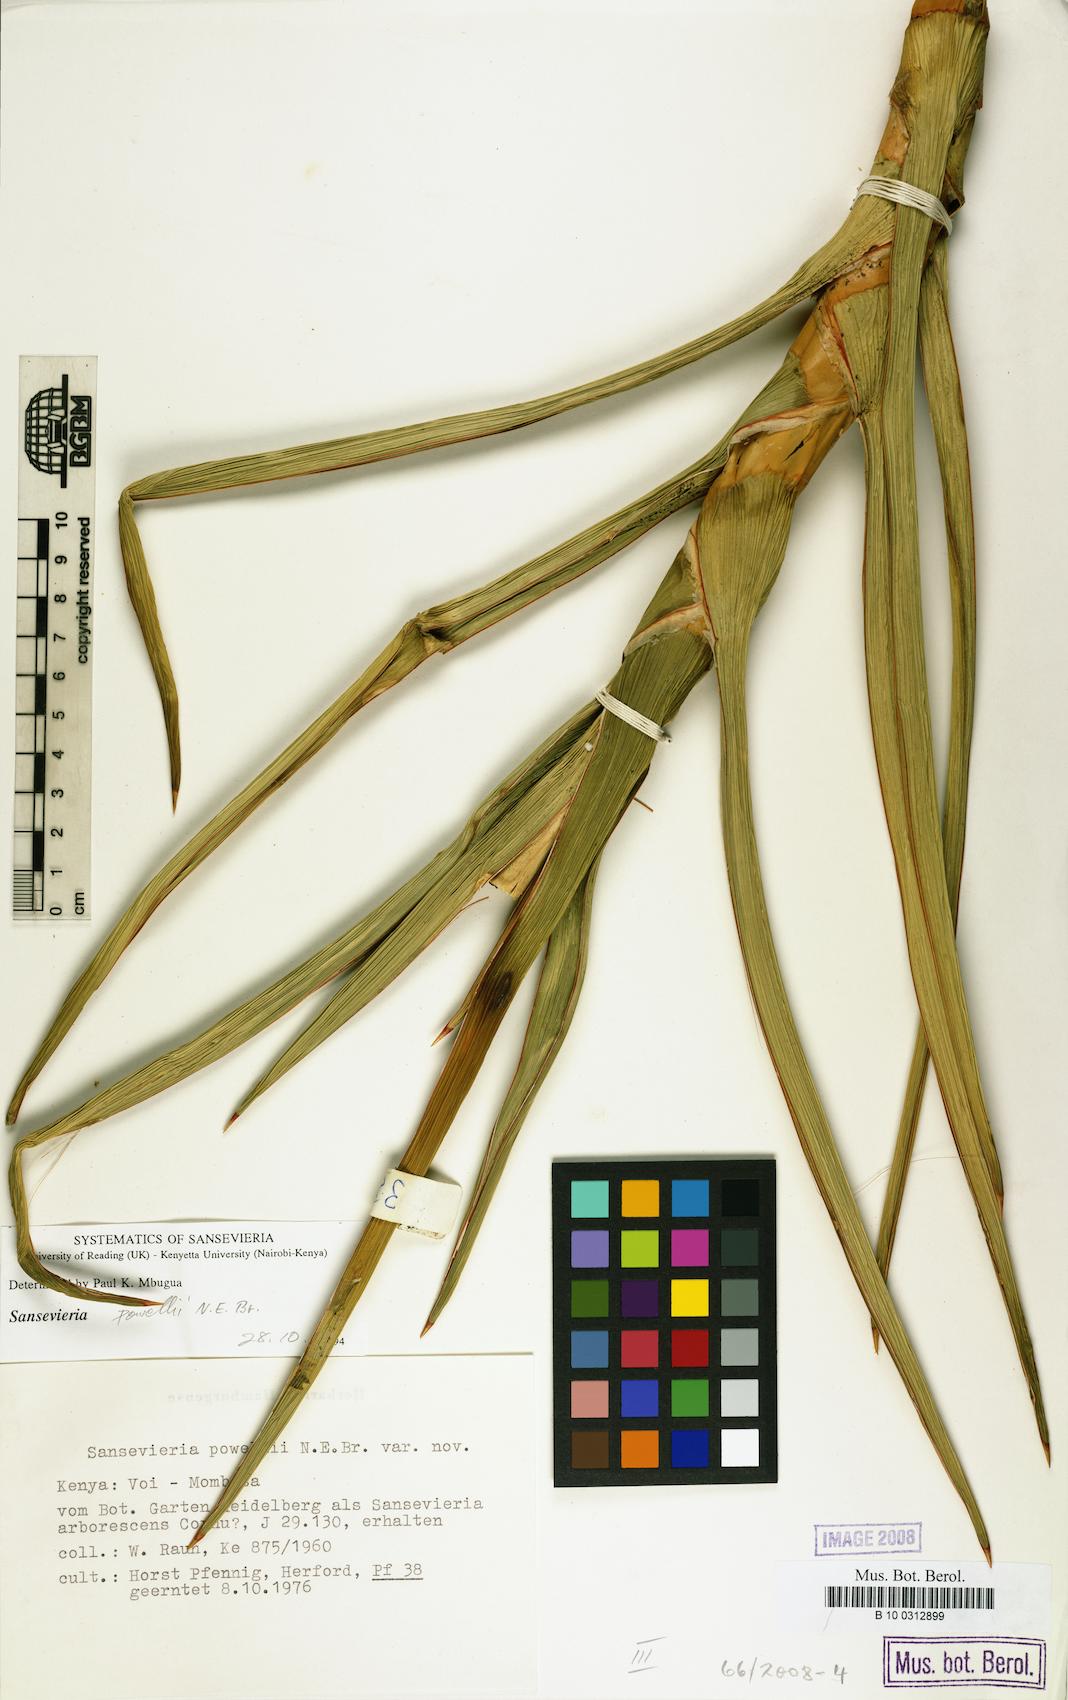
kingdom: Plantae
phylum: Tracheophyta
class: Liliopsida
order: Asparagales
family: Asparagaceae
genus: Dracaena
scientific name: Dracaena powellii
